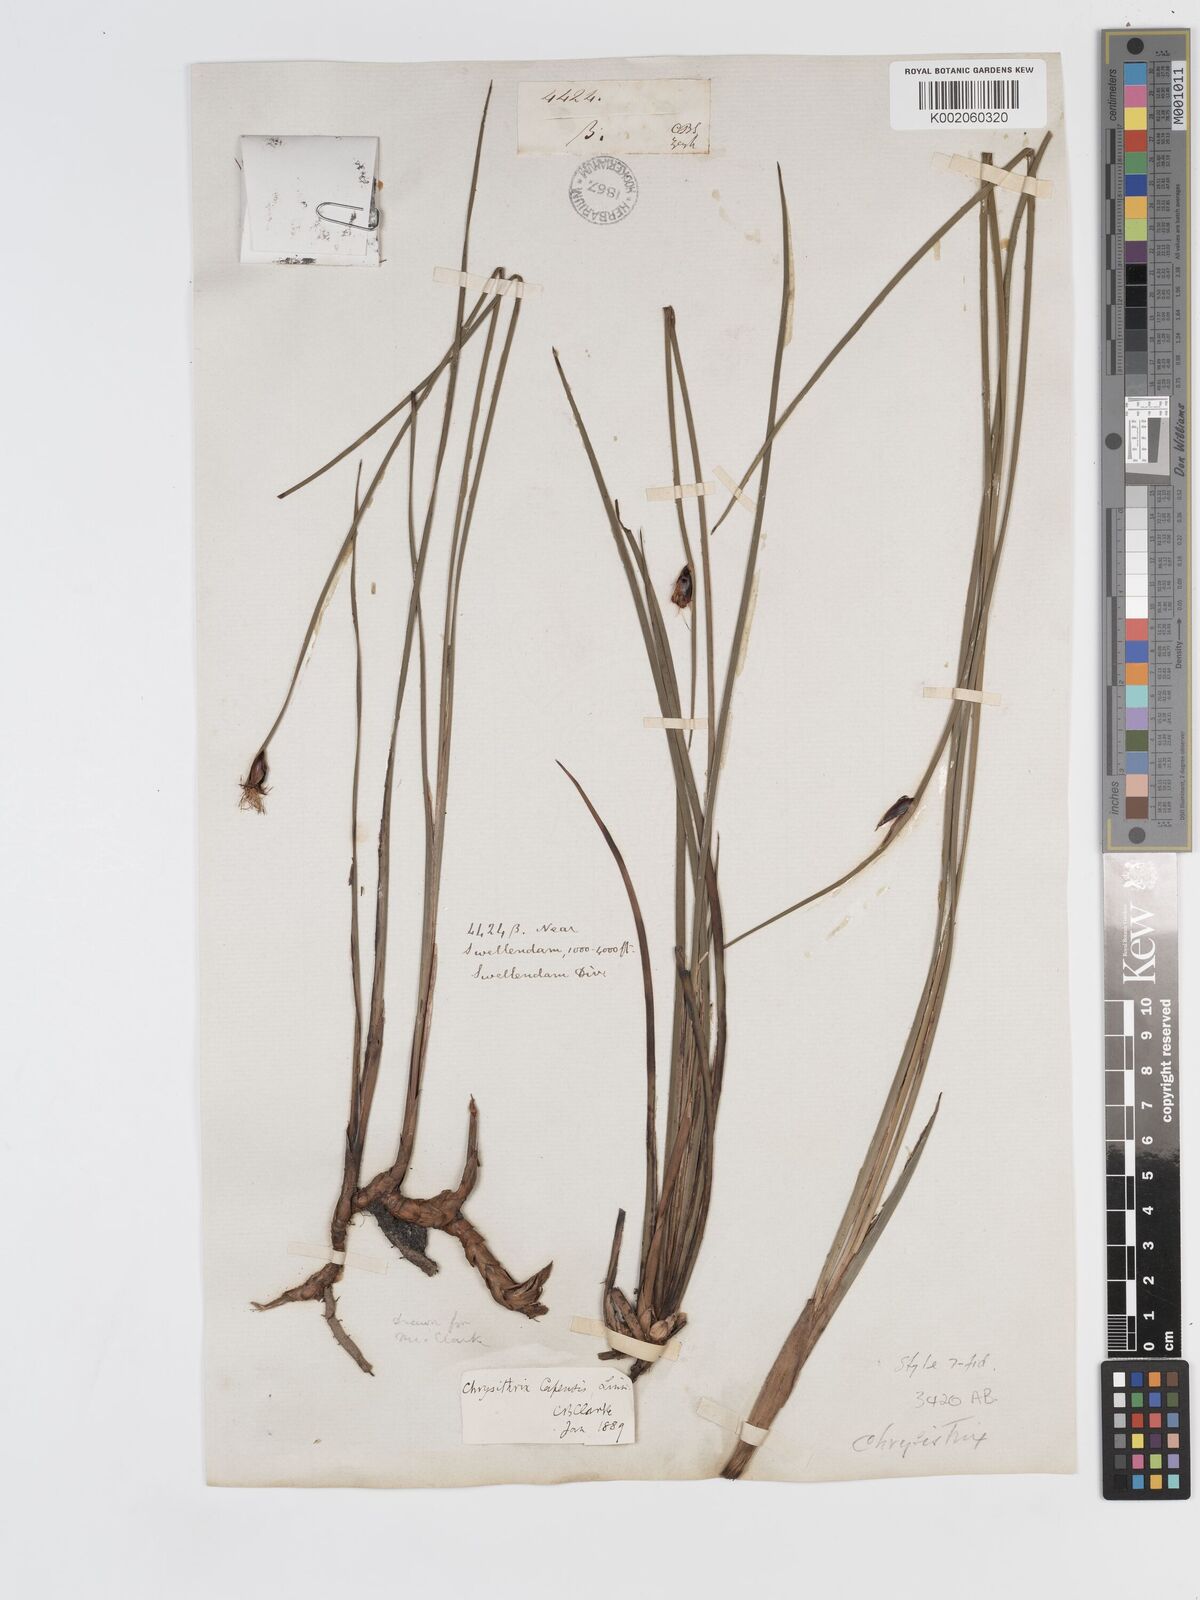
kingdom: Plantae
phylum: Tracheophyta
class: Liliopsida
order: Poales
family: Cyperaceae
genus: Chrysitrix
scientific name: Chrysitrix capensis
